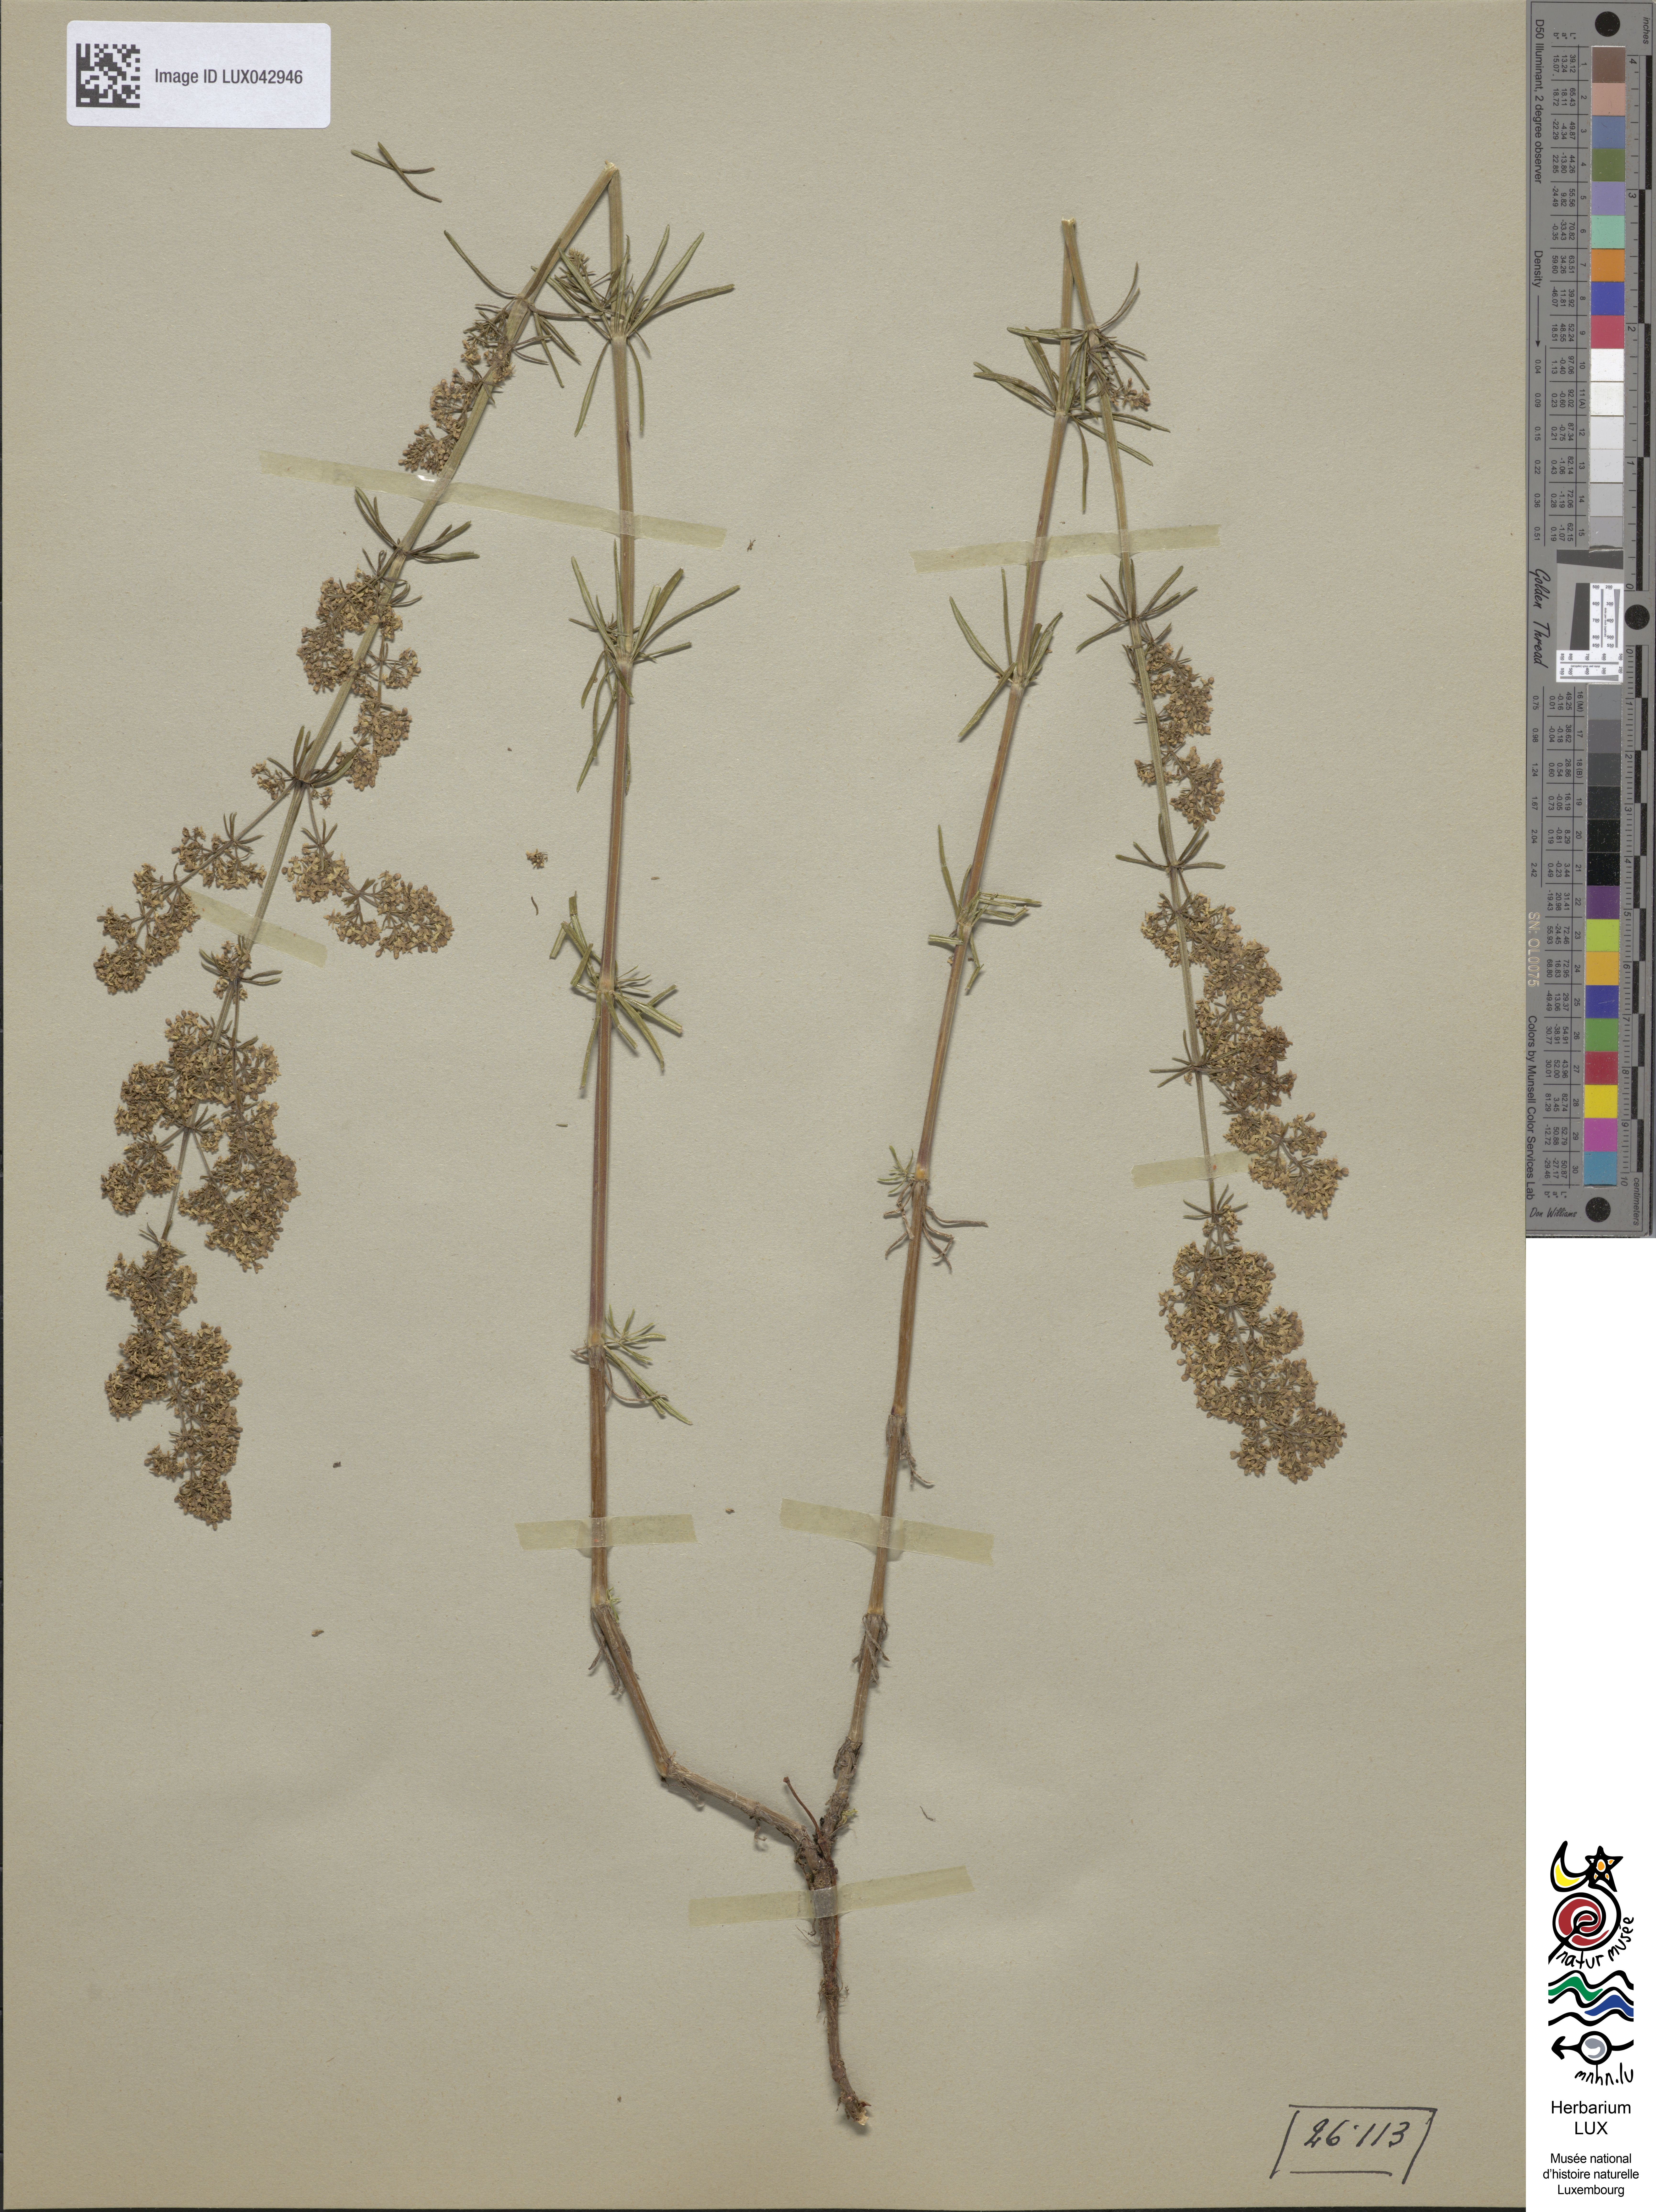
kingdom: Plantae
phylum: Tracheophyta
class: Magnoliopsida
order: Gentianales
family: Rubiaceae
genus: Galium
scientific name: Galium verum
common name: Lady's bedstraw
